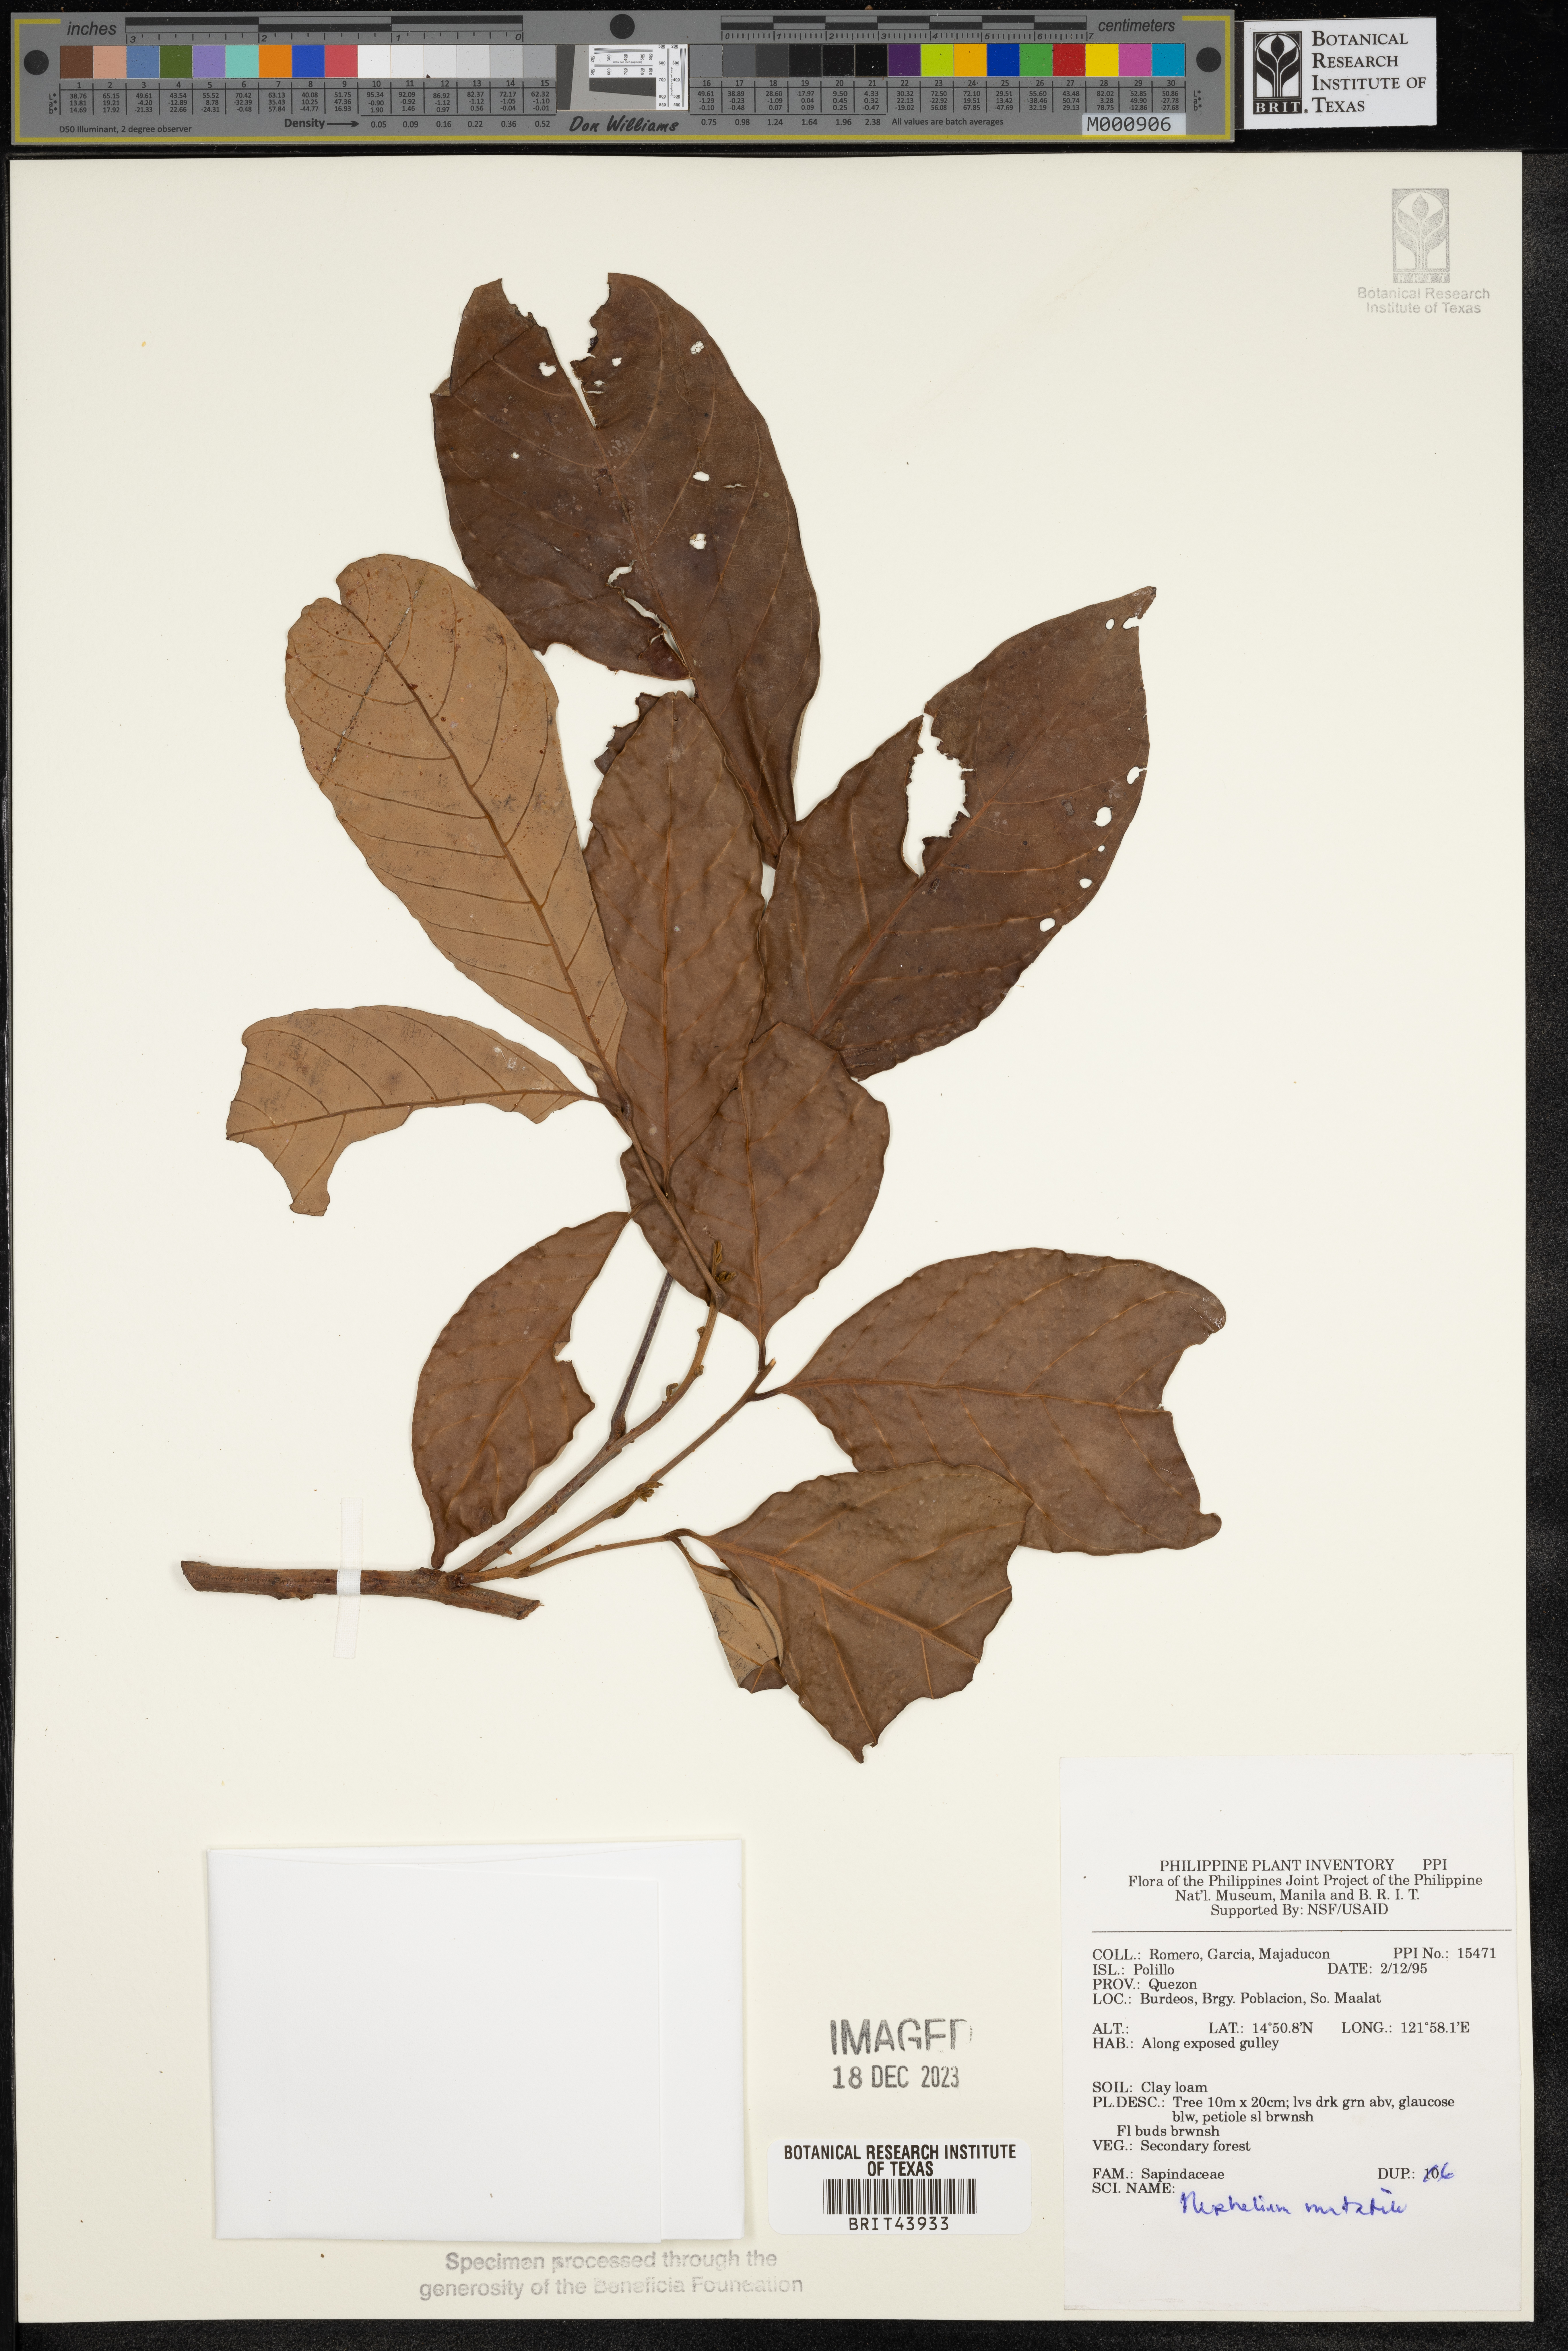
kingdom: Plantae
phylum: Tracheophyta
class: Magnoliopsida
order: Sapindales
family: Sapindaceae
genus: Nephelium
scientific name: Nephelium ramboutan-ake
